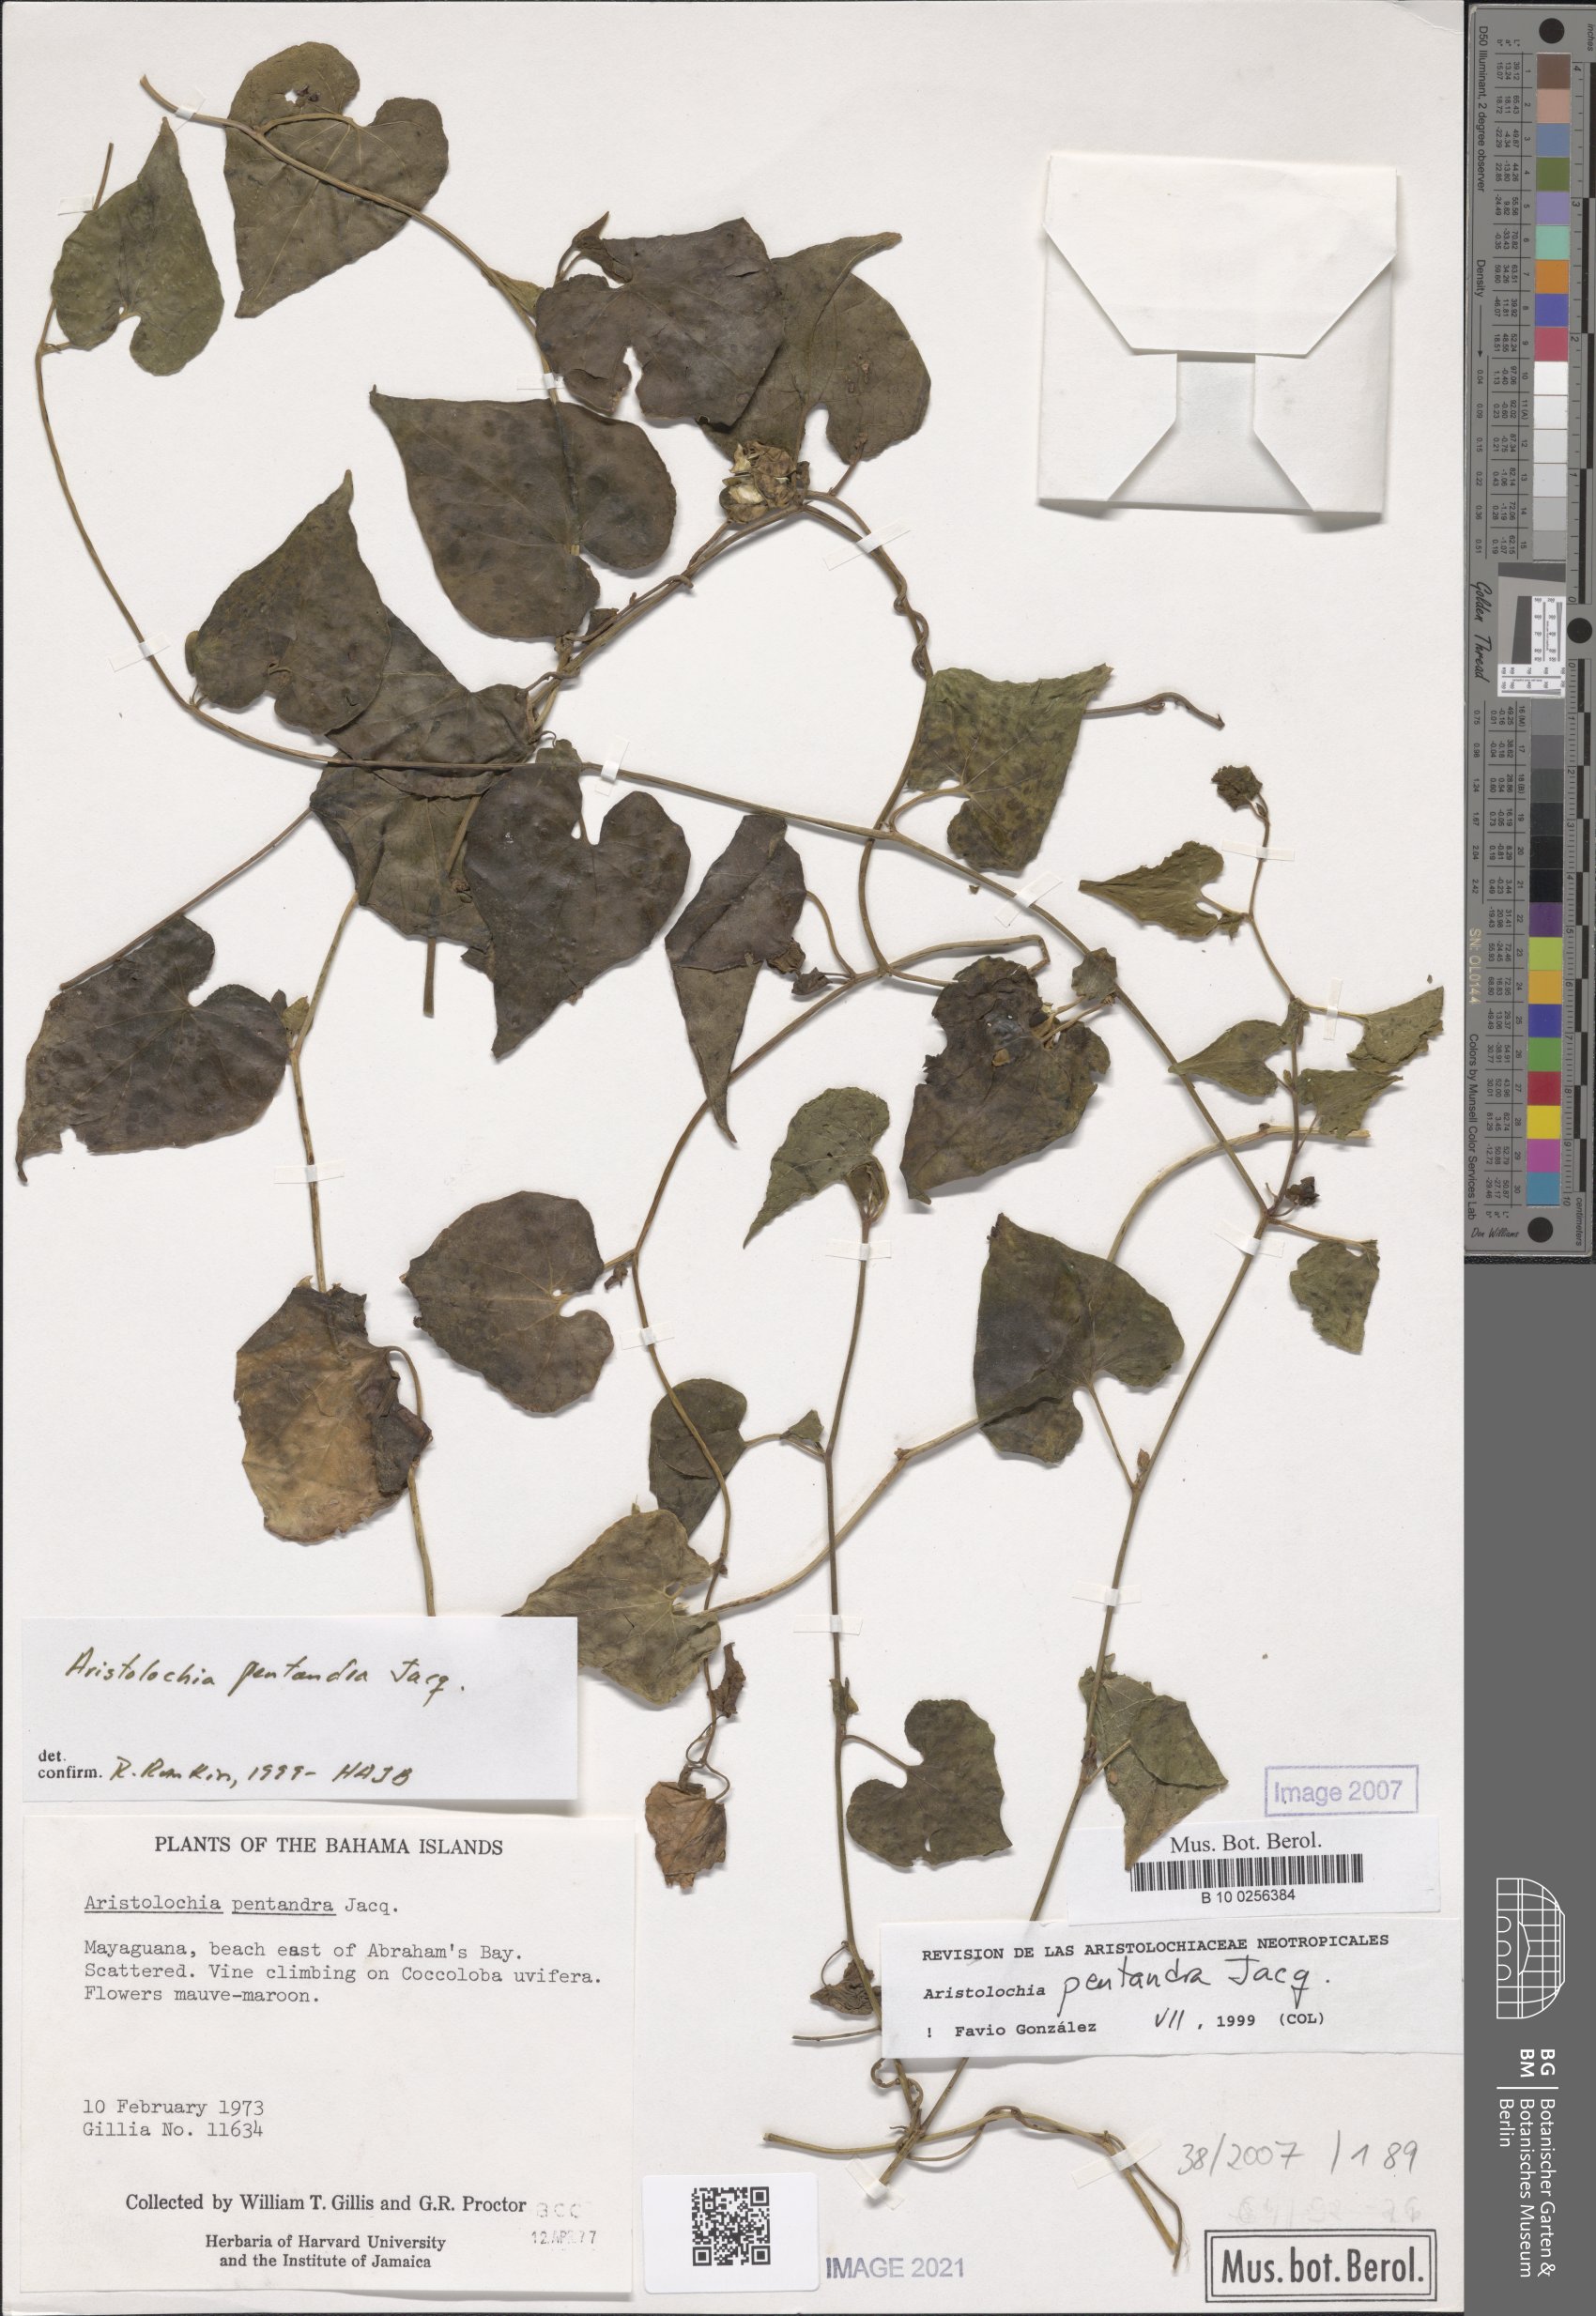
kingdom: Plantae
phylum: Tracheophyta
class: Magnoliopsida
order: Piperales
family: Aristolochiaceae
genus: Aristolochia
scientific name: Aristolochia
